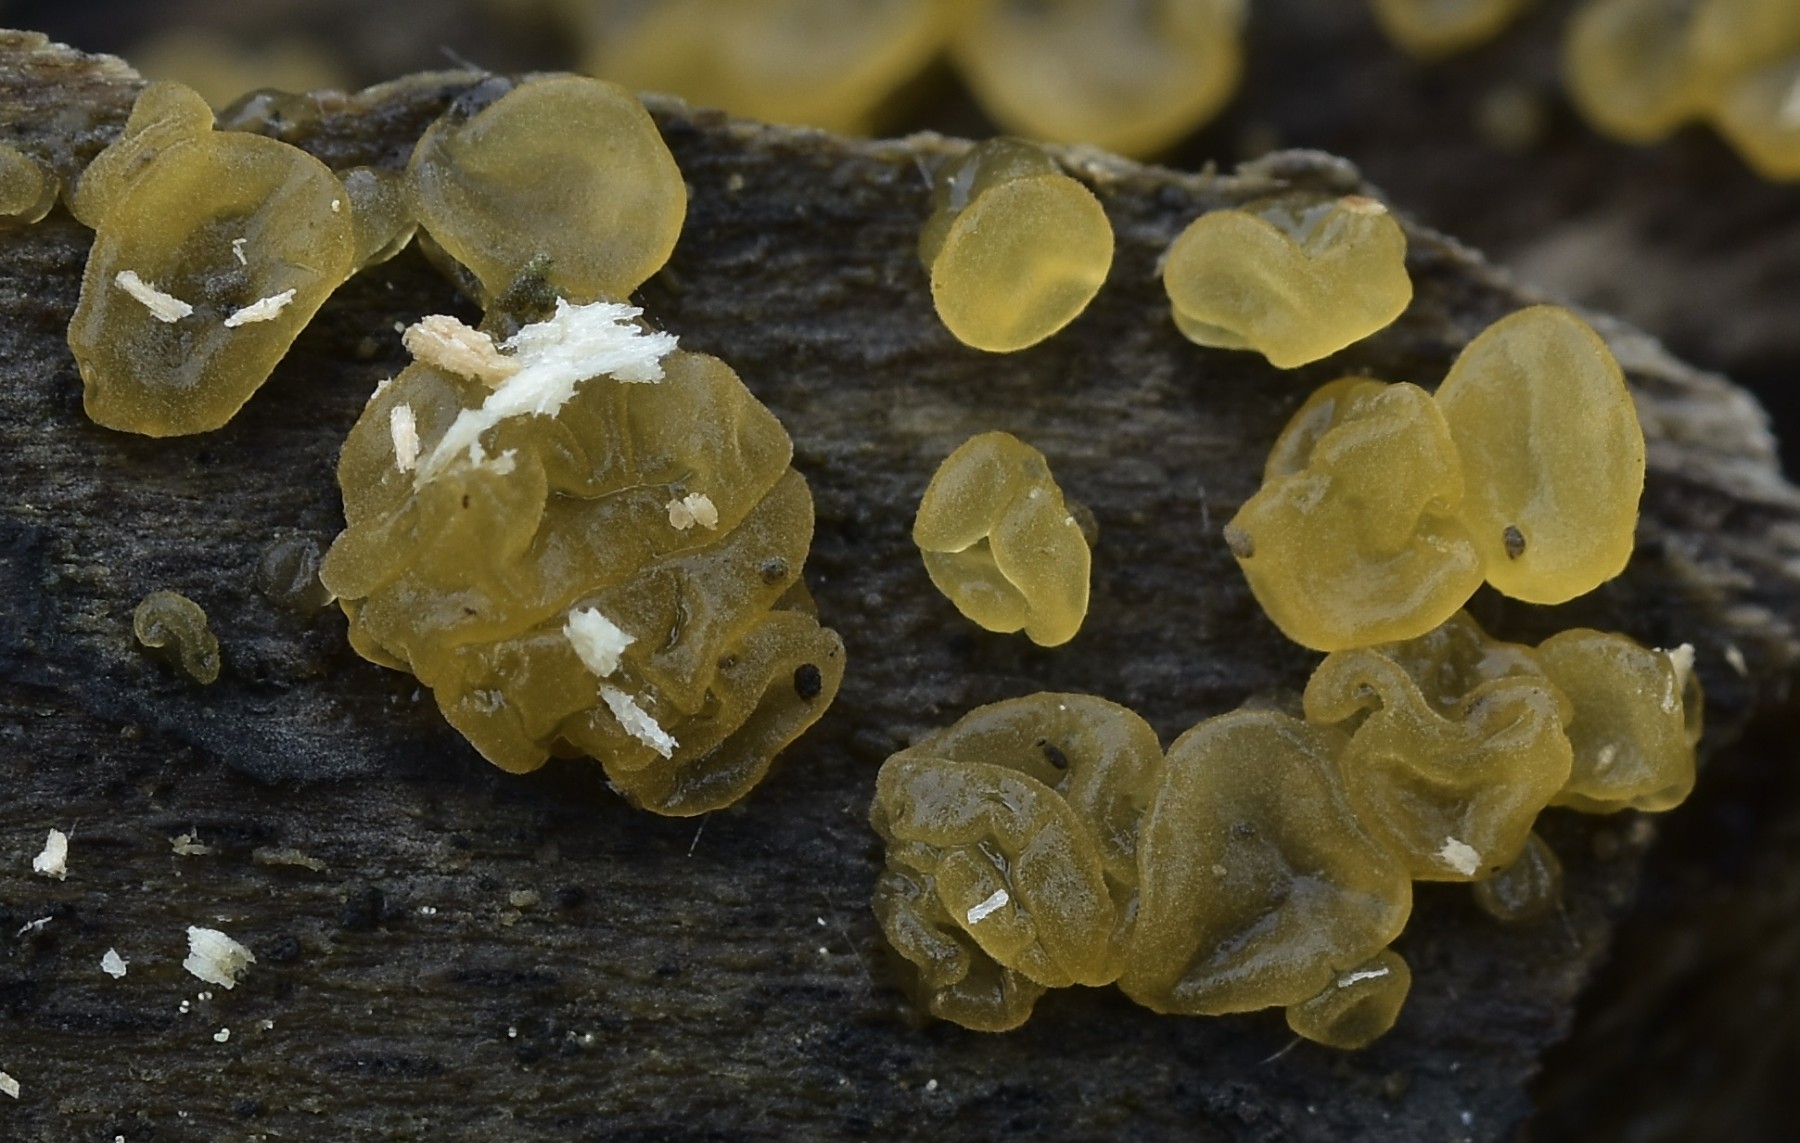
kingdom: Fungi
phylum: Basidiomycota
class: Dacrymycetes
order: Dacrymycetales
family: Dacrymycetaceae
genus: Dacrymyces
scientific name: Dacrymyces lacrymalis
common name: rynket tåresvamp
